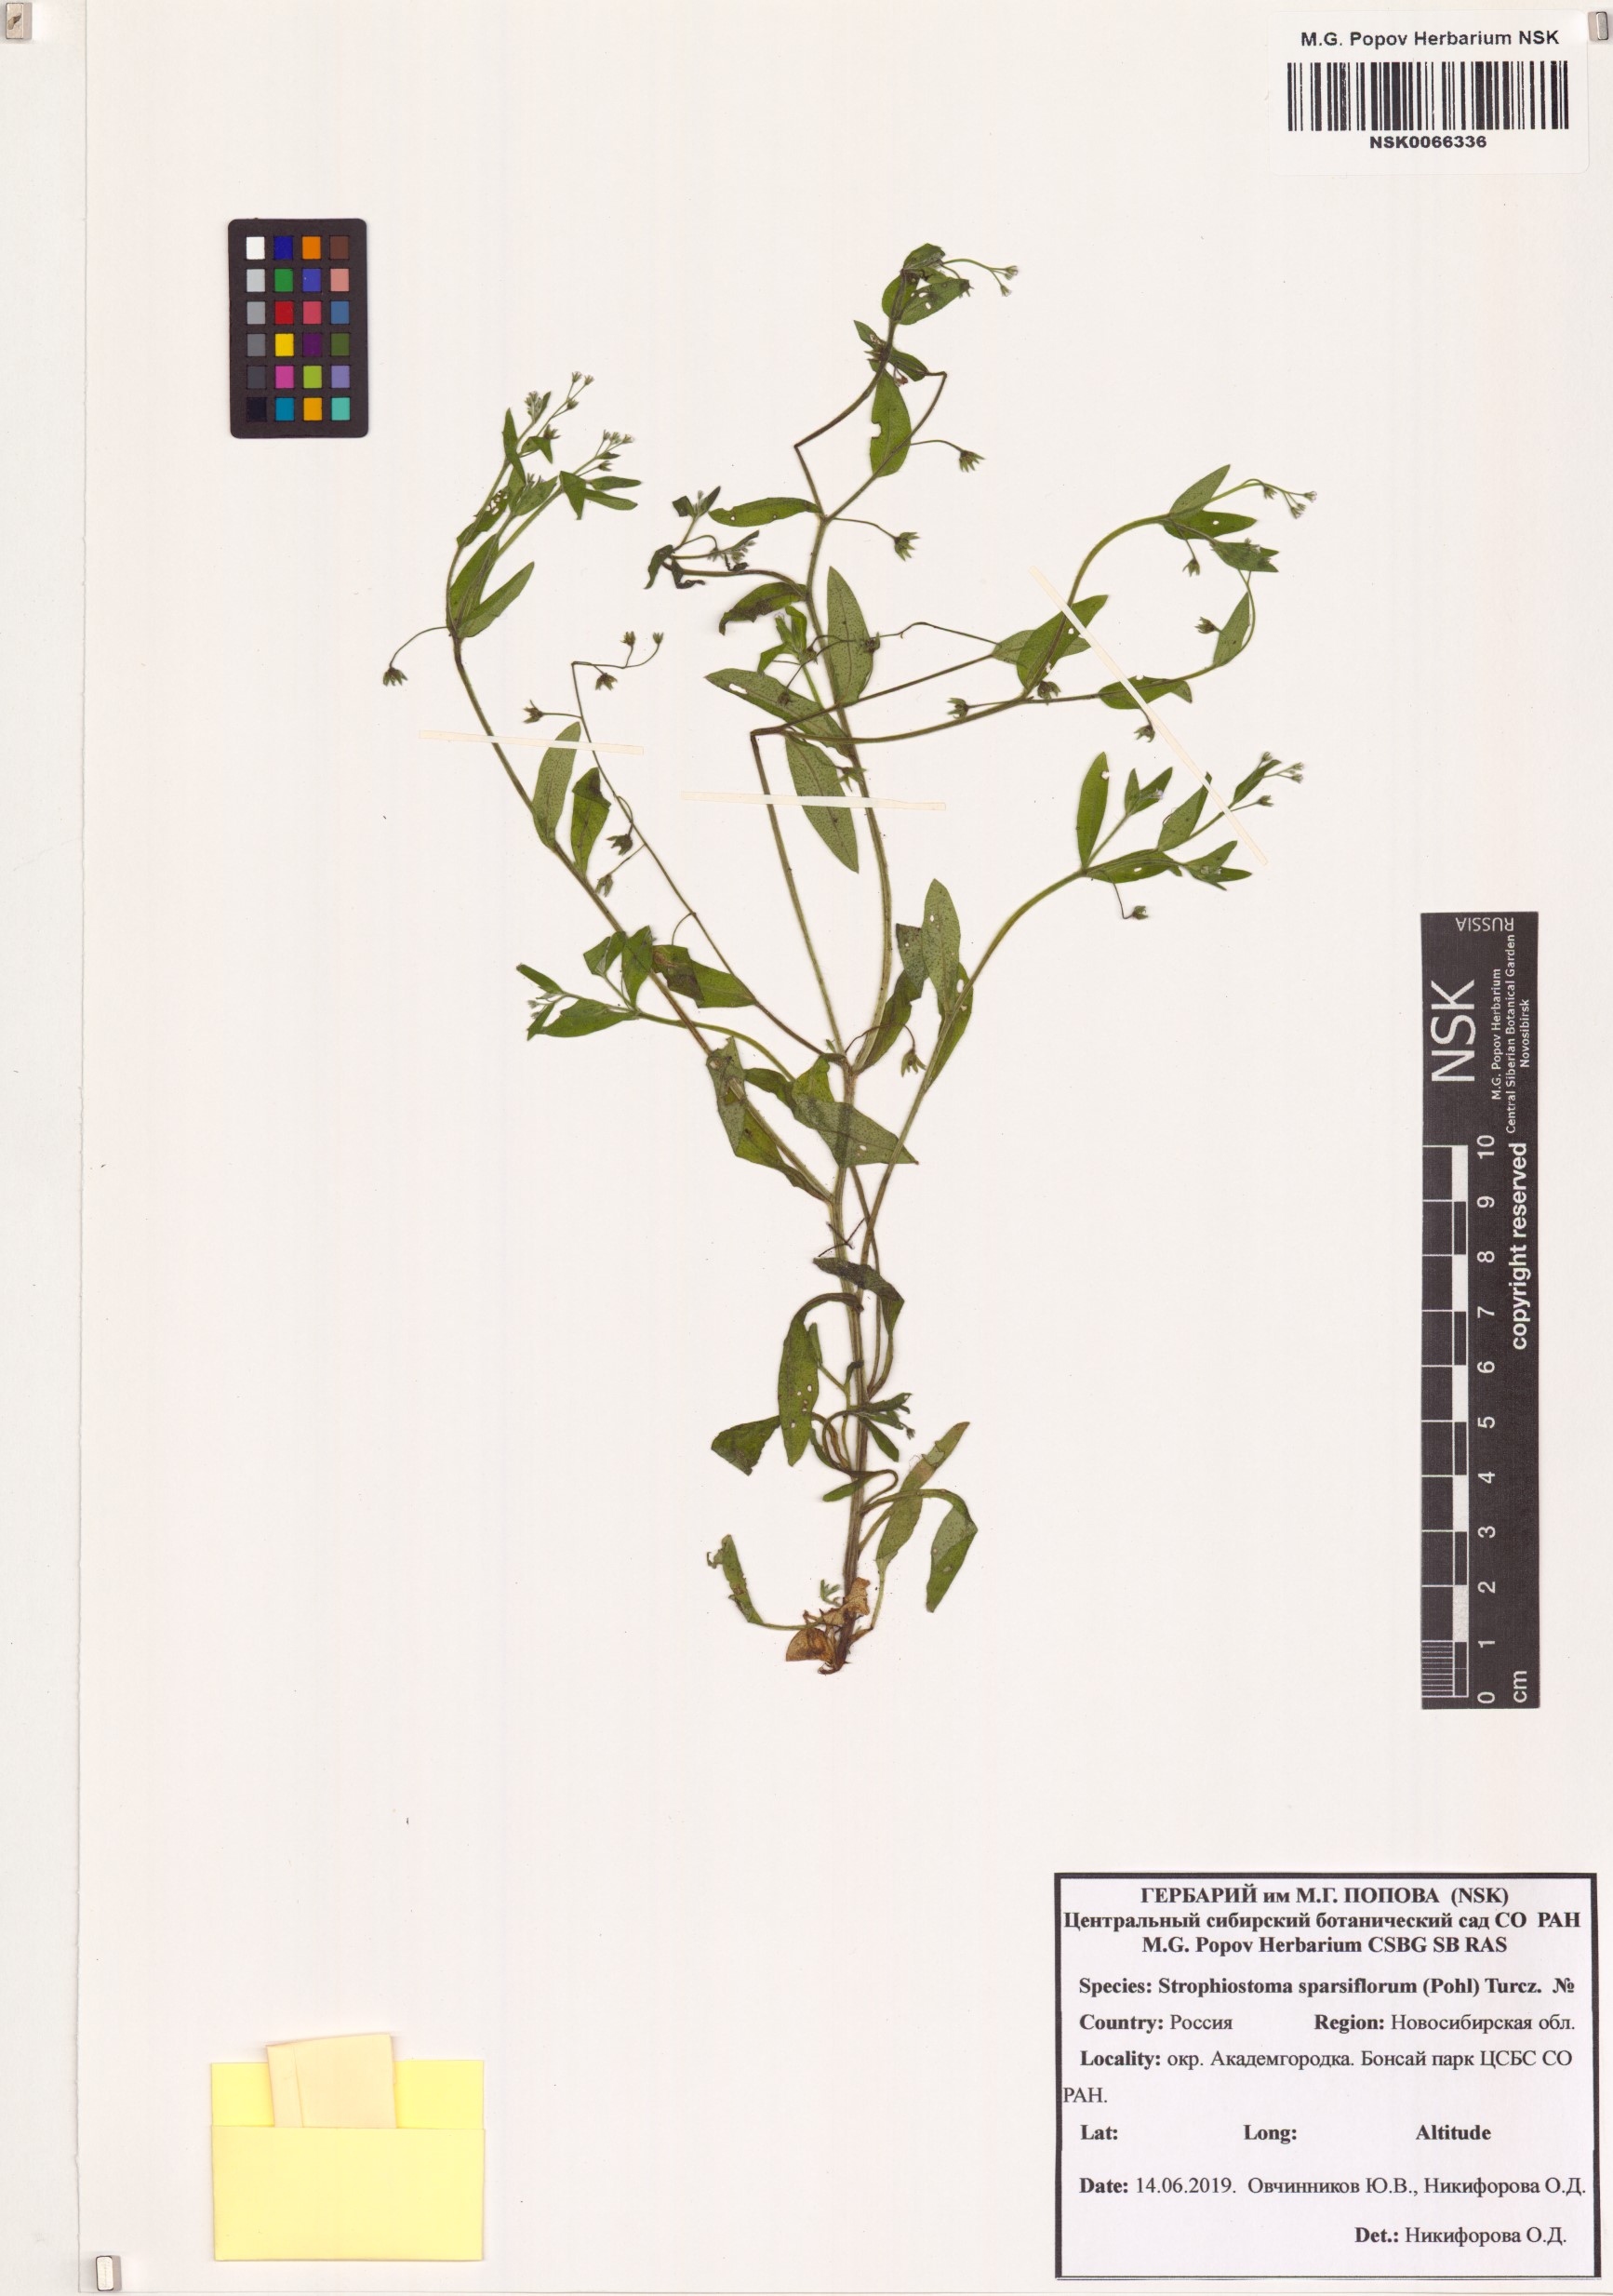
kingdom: Plantae
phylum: Tracheophyta
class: Magnoliopsida
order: Boraginales
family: Boraginaceae
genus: Myosotis
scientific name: Myosotis sparsiflora
